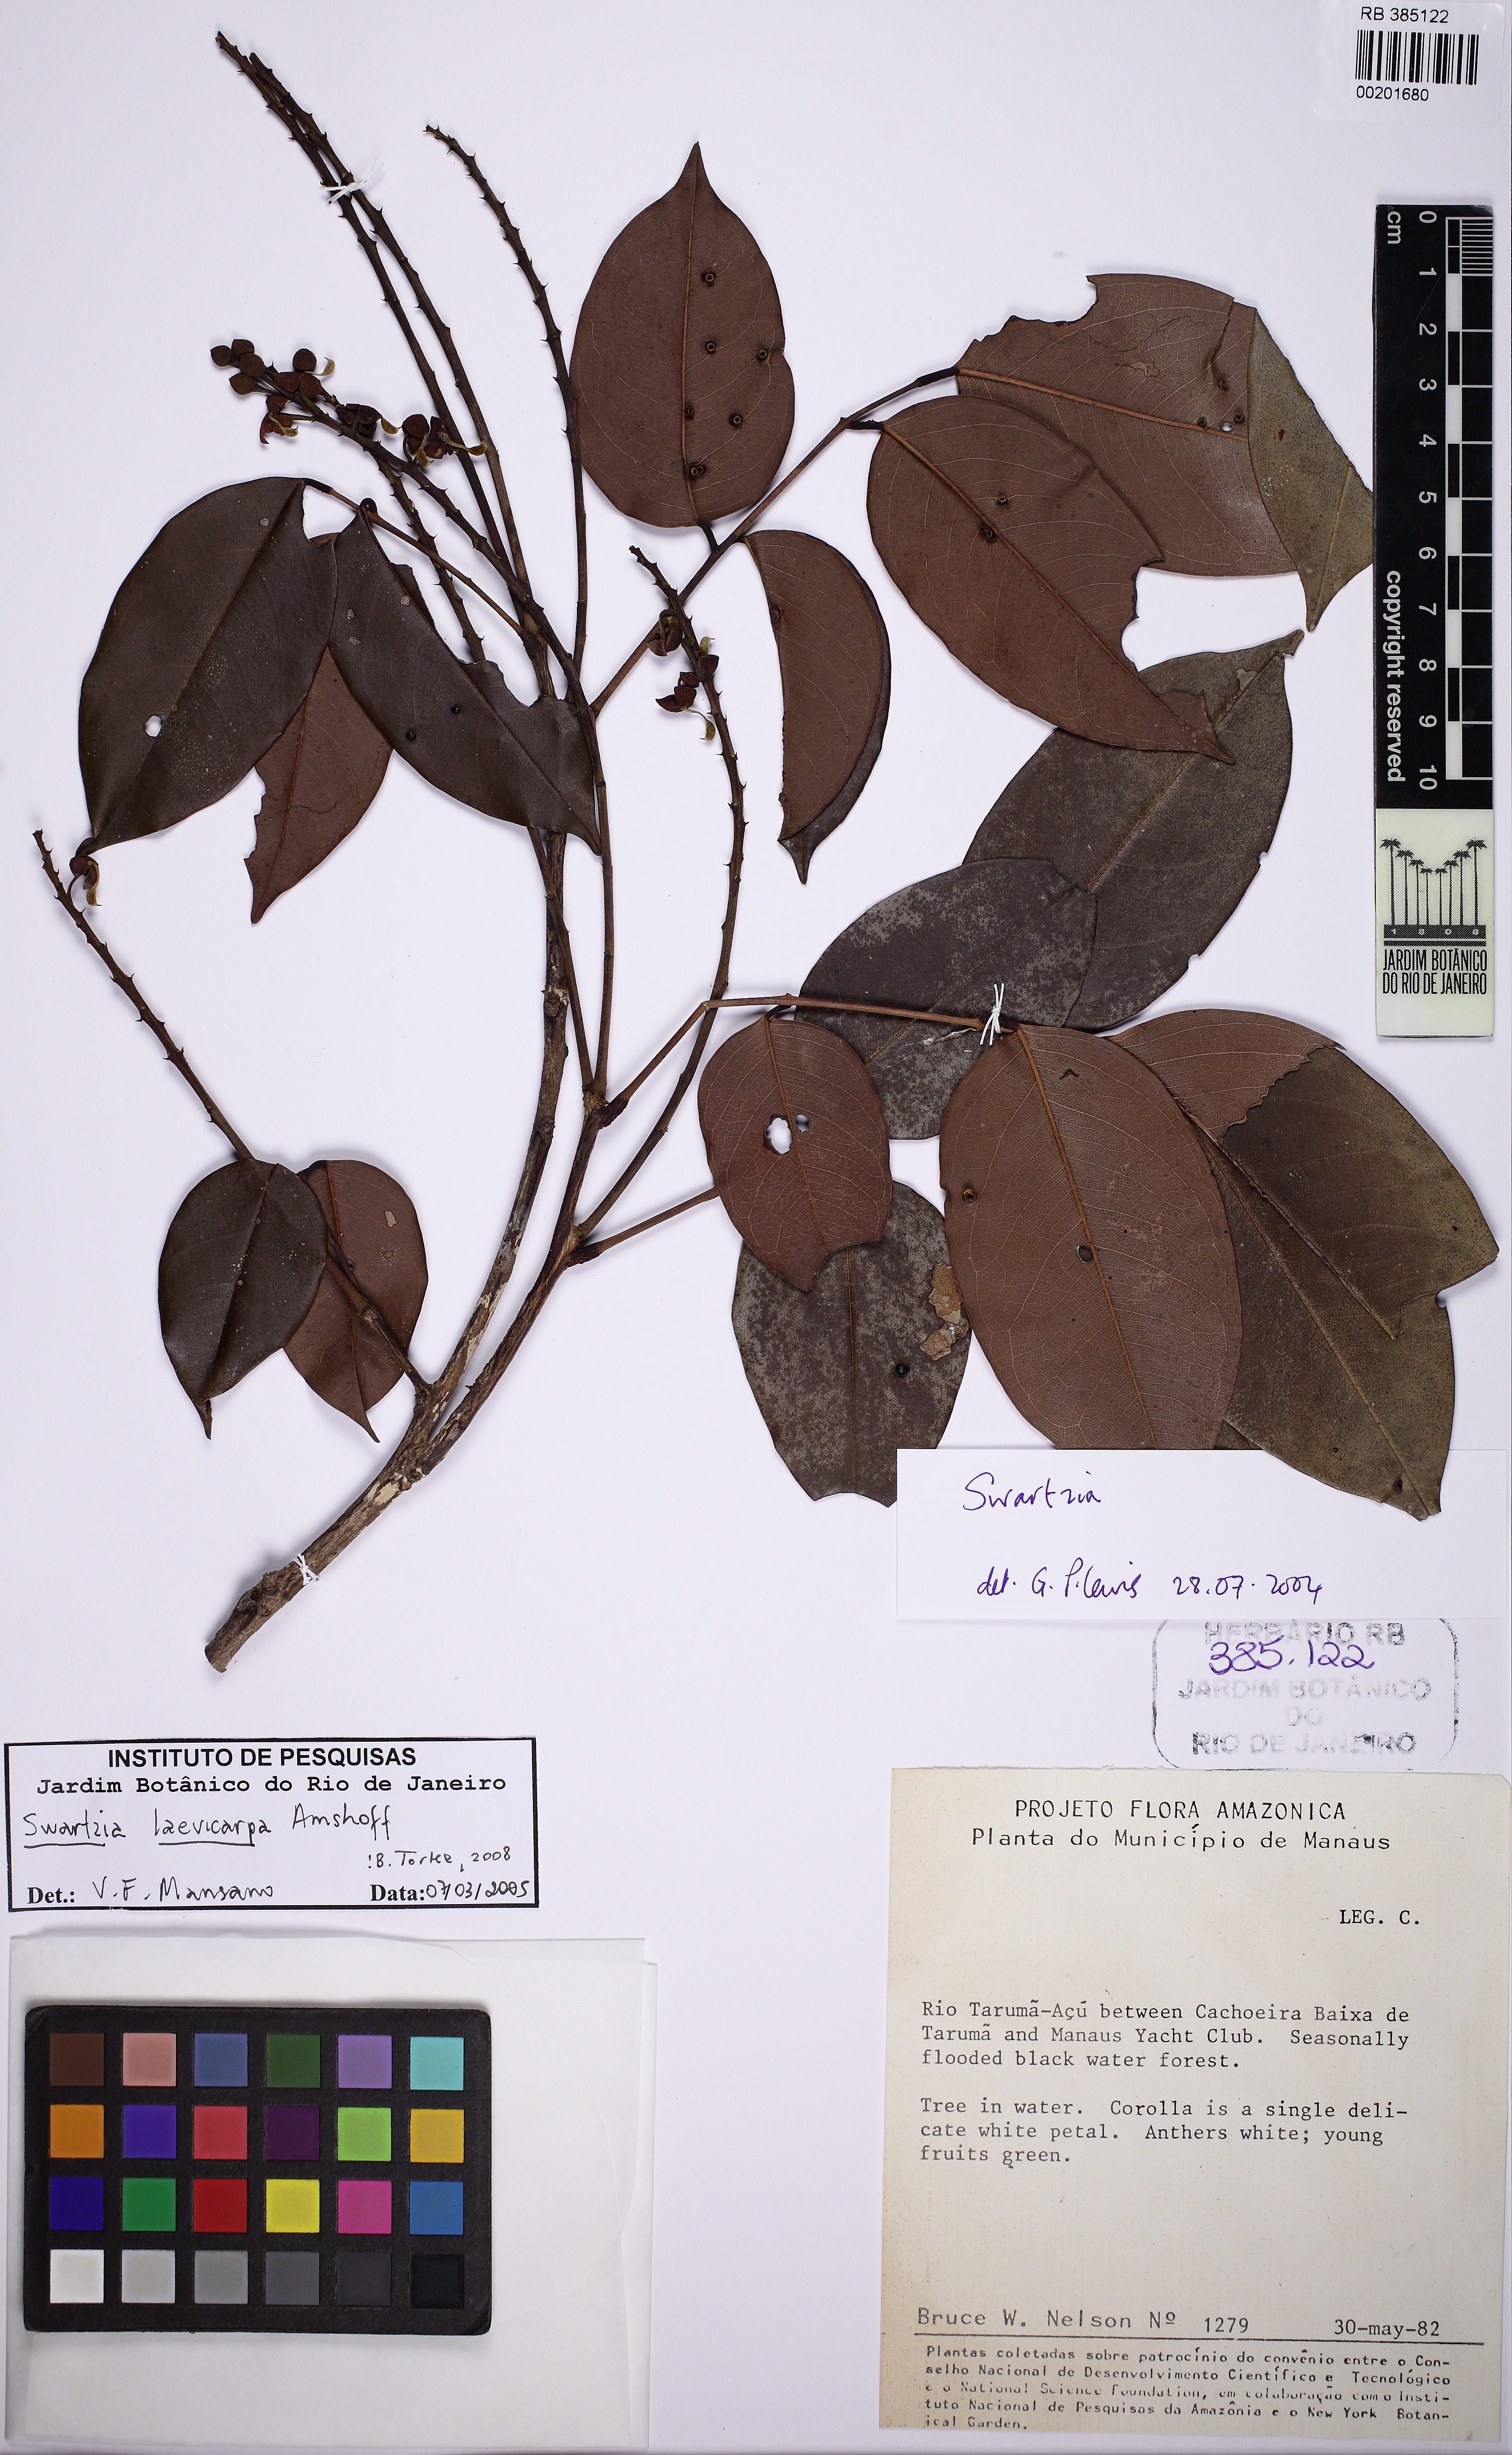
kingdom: Plantae
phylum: Tracheophyta
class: Magnoliopsida
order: Fabales
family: Fabaceae
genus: Swartzia
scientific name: Swartzia laevicarpa
